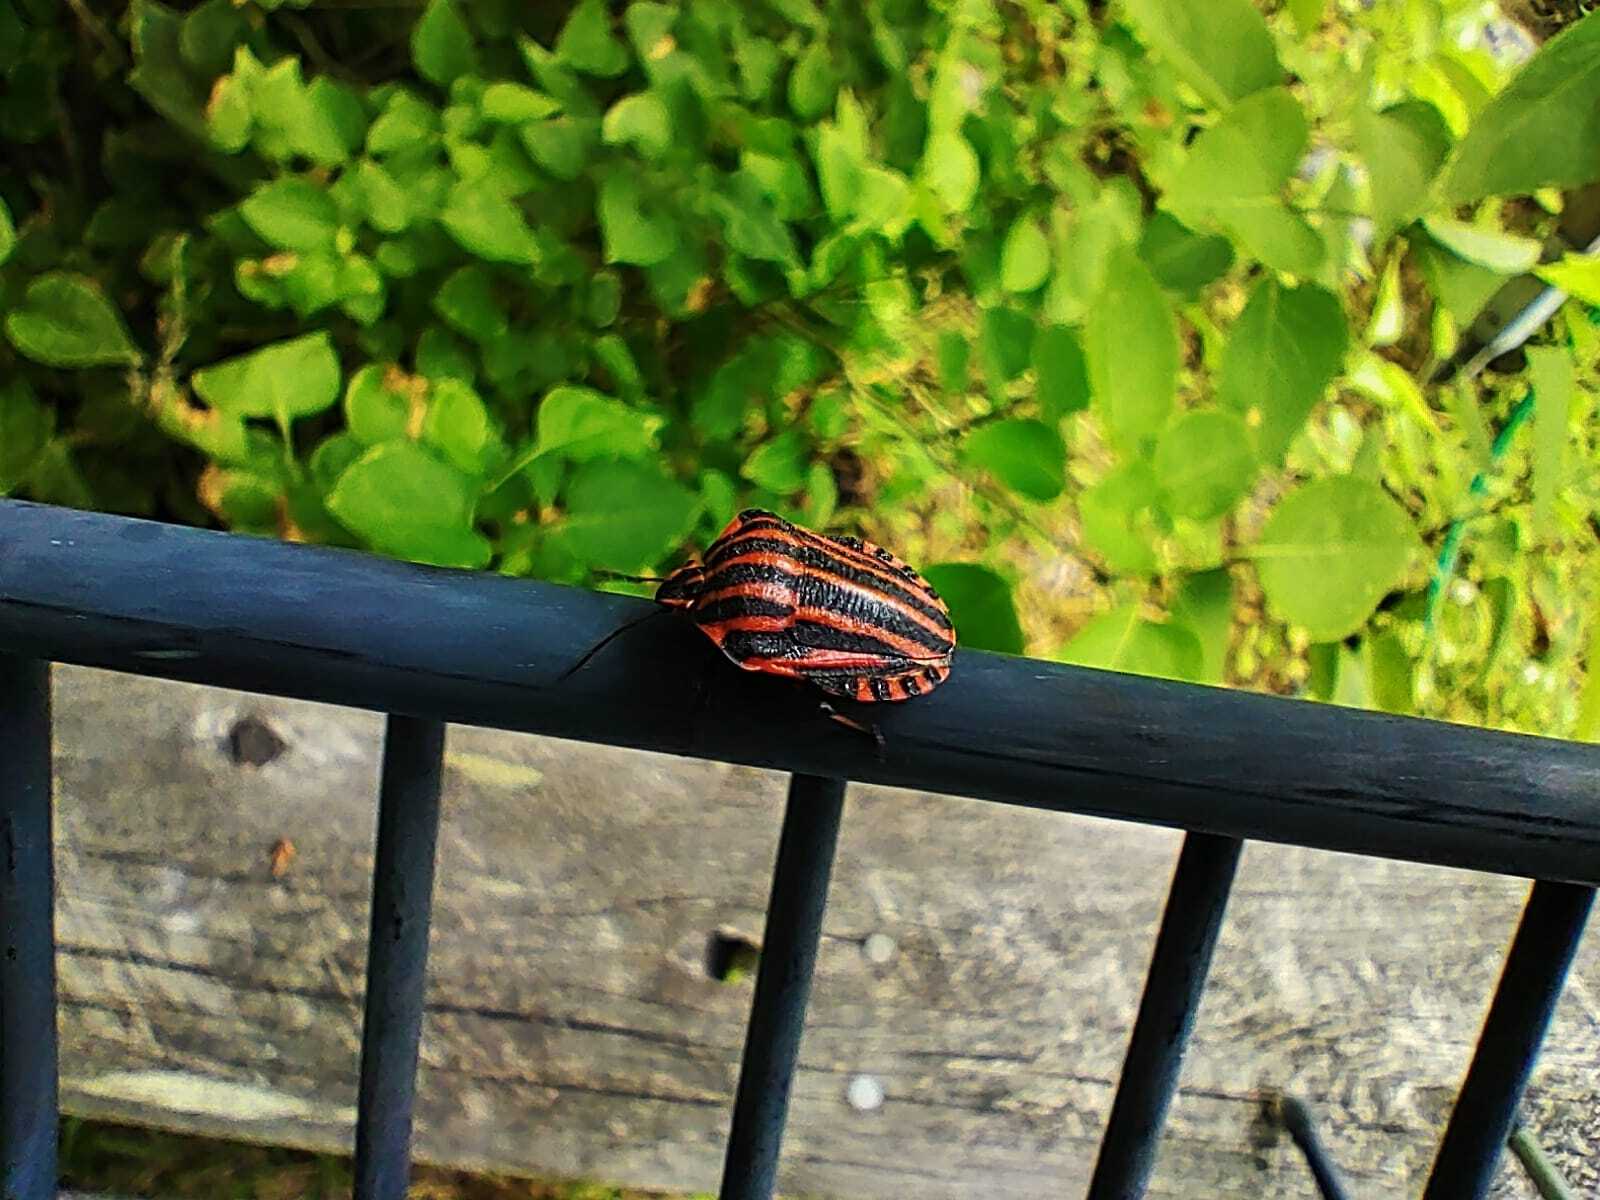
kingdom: Animalia
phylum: Arthropoda
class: Insecta
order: Hemiptera
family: Pentatomidae
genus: Graphosoma
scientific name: Graphosoma italicum
